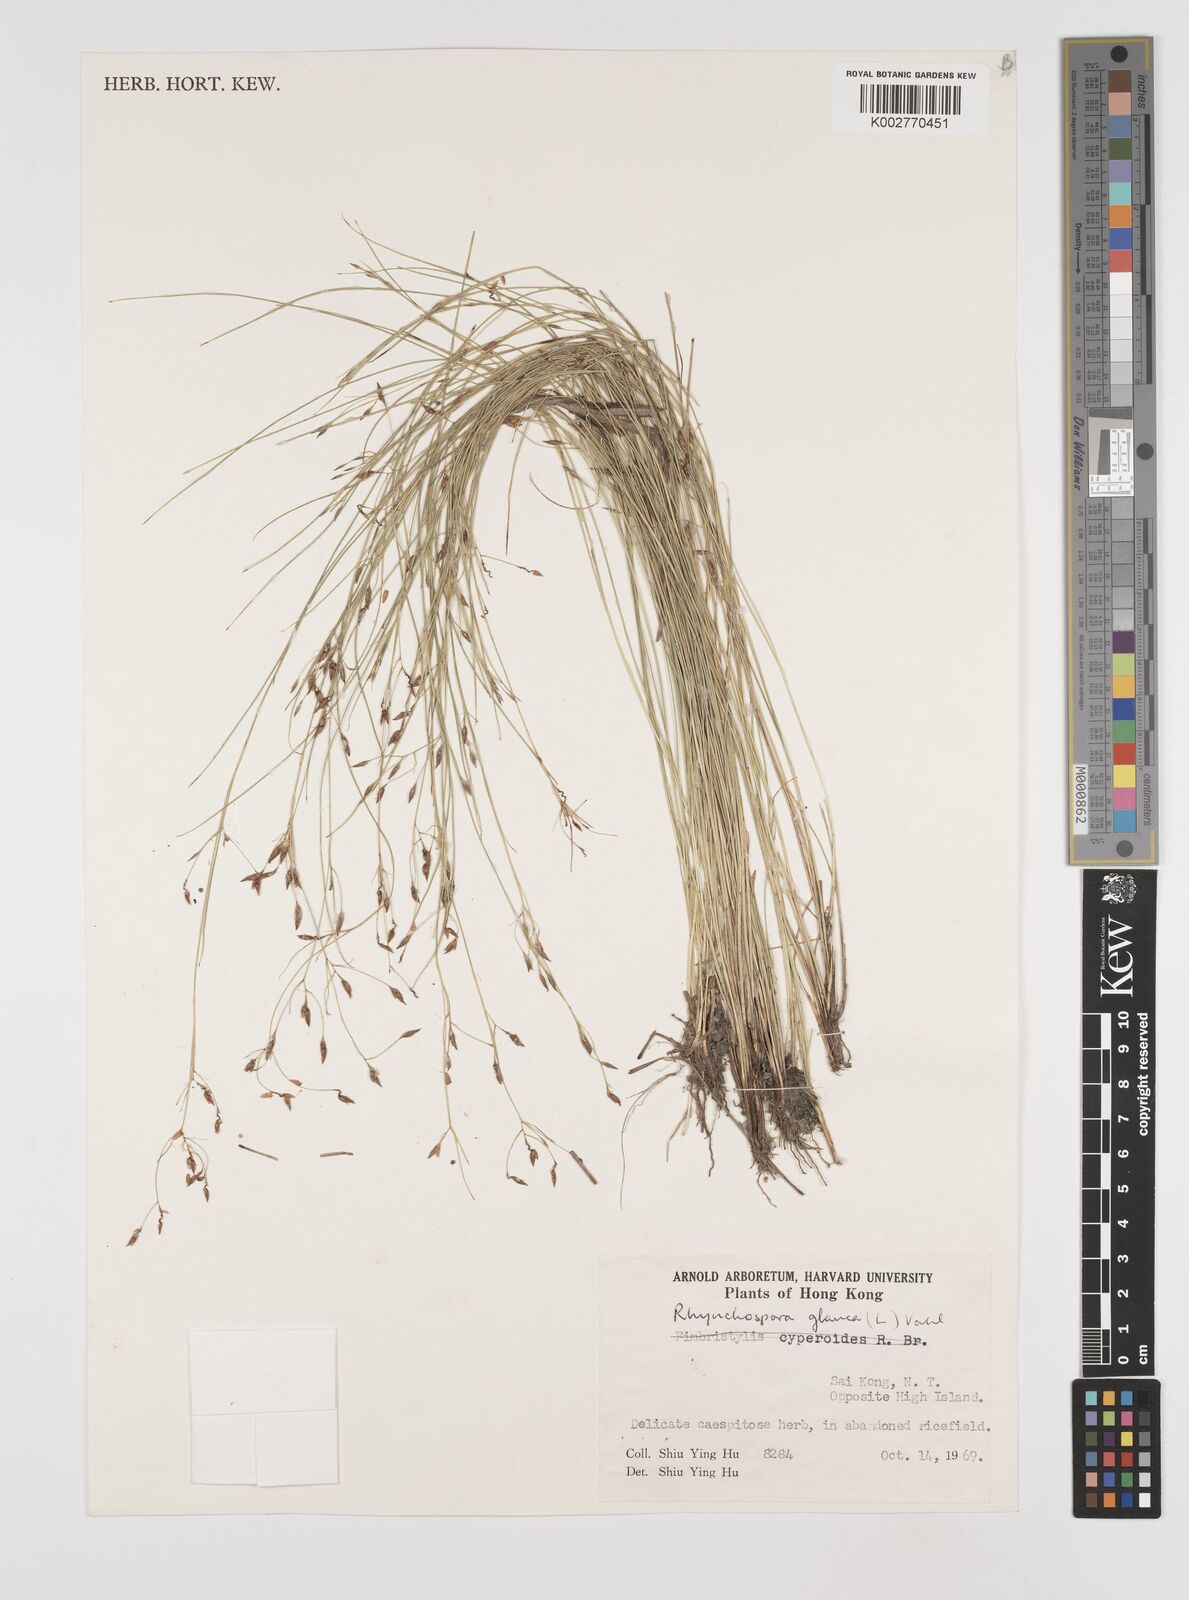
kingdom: Plantae
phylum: Tracheophyta
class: Liliopsida
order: Poales
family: Cyperaceae
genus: Rhynchospora
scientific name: Rhynchospora
